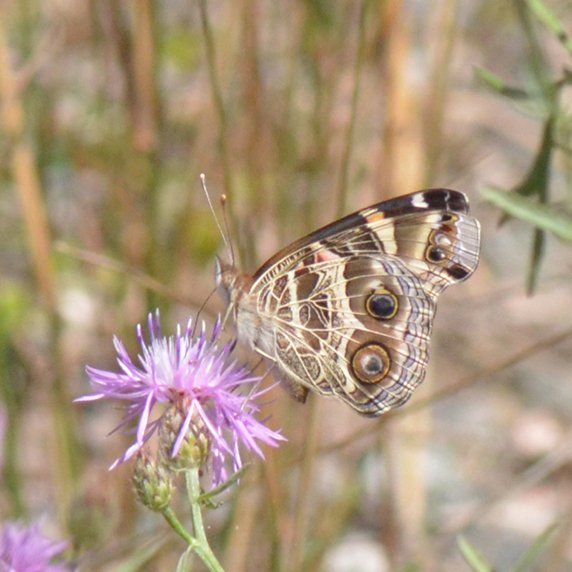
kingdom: Animalia
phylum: Arthropoda
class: Insecta
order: Lepidoptera
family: Nymphalidae
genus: Vanessa
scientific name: Vanessa virginiensis
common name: American Lady
